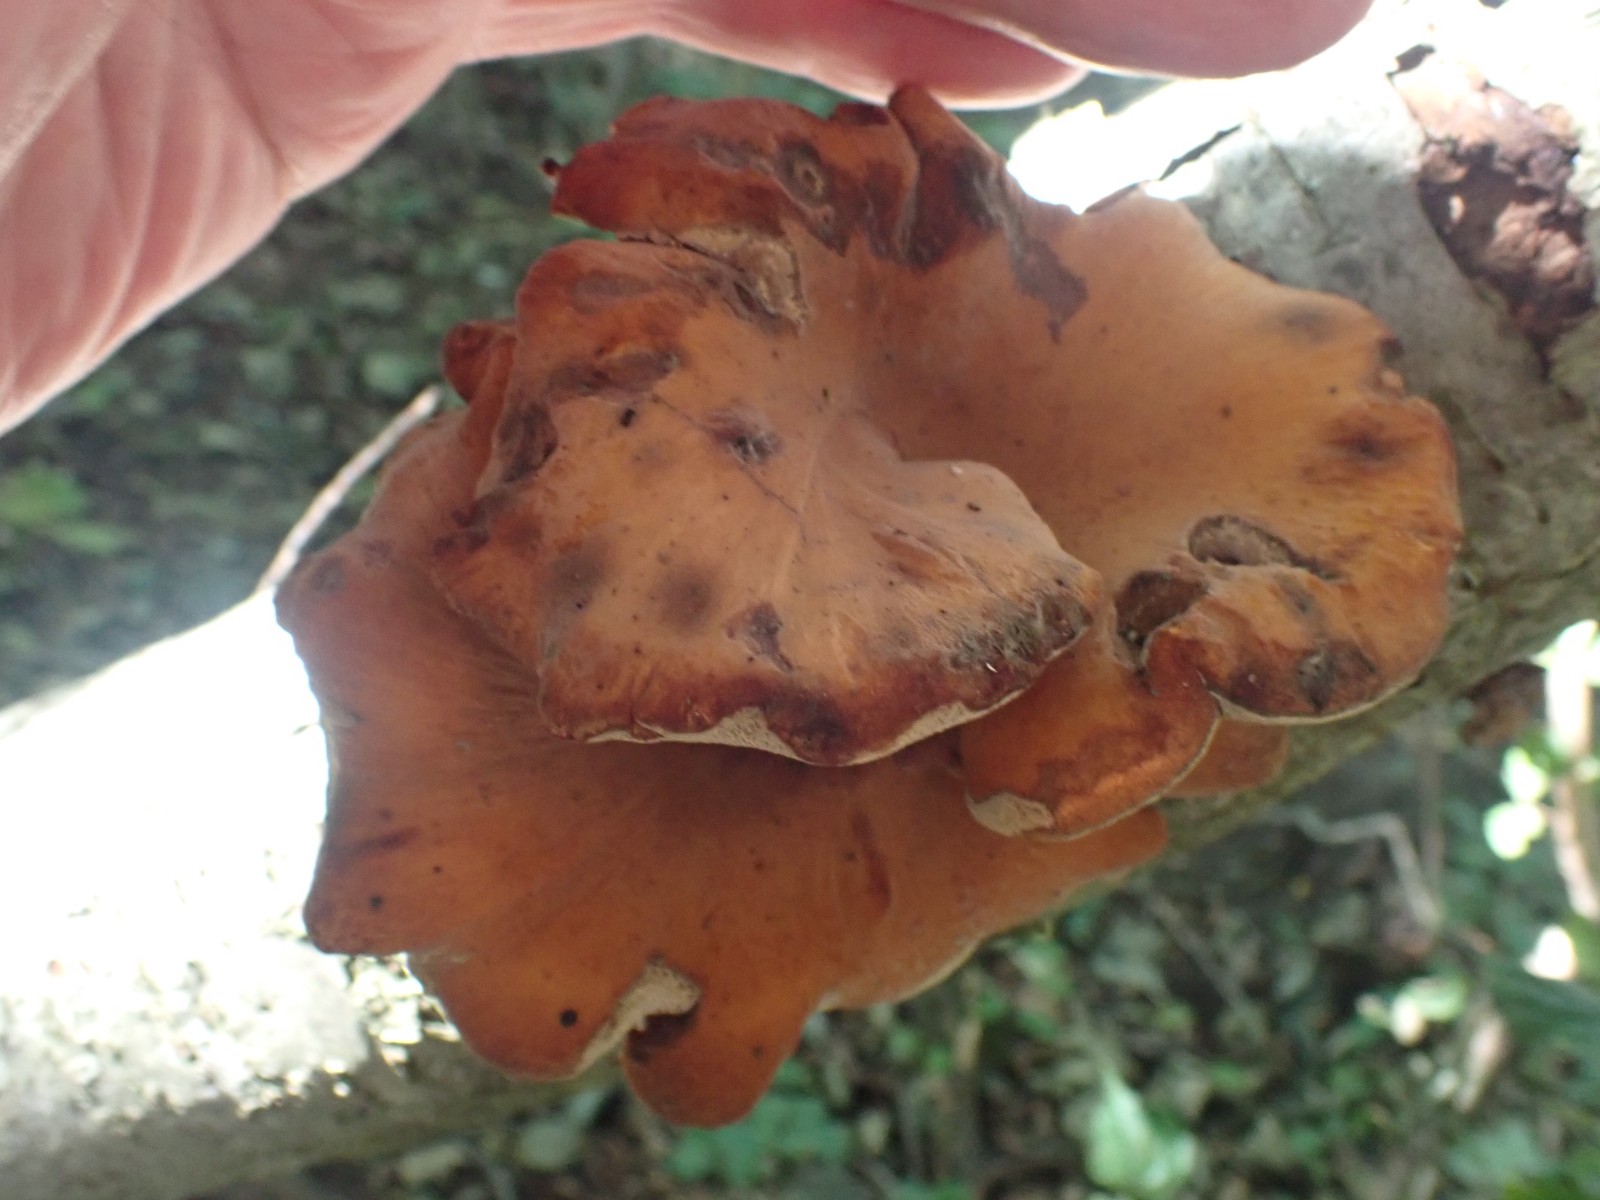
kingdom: Fungi
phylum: Basidiomycota
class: Agaricomycetes
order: Polyporales
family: Polyporaceae
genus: Cerioporus
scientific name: Cerioporus varius
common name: foranderlig stilkporesvamp
